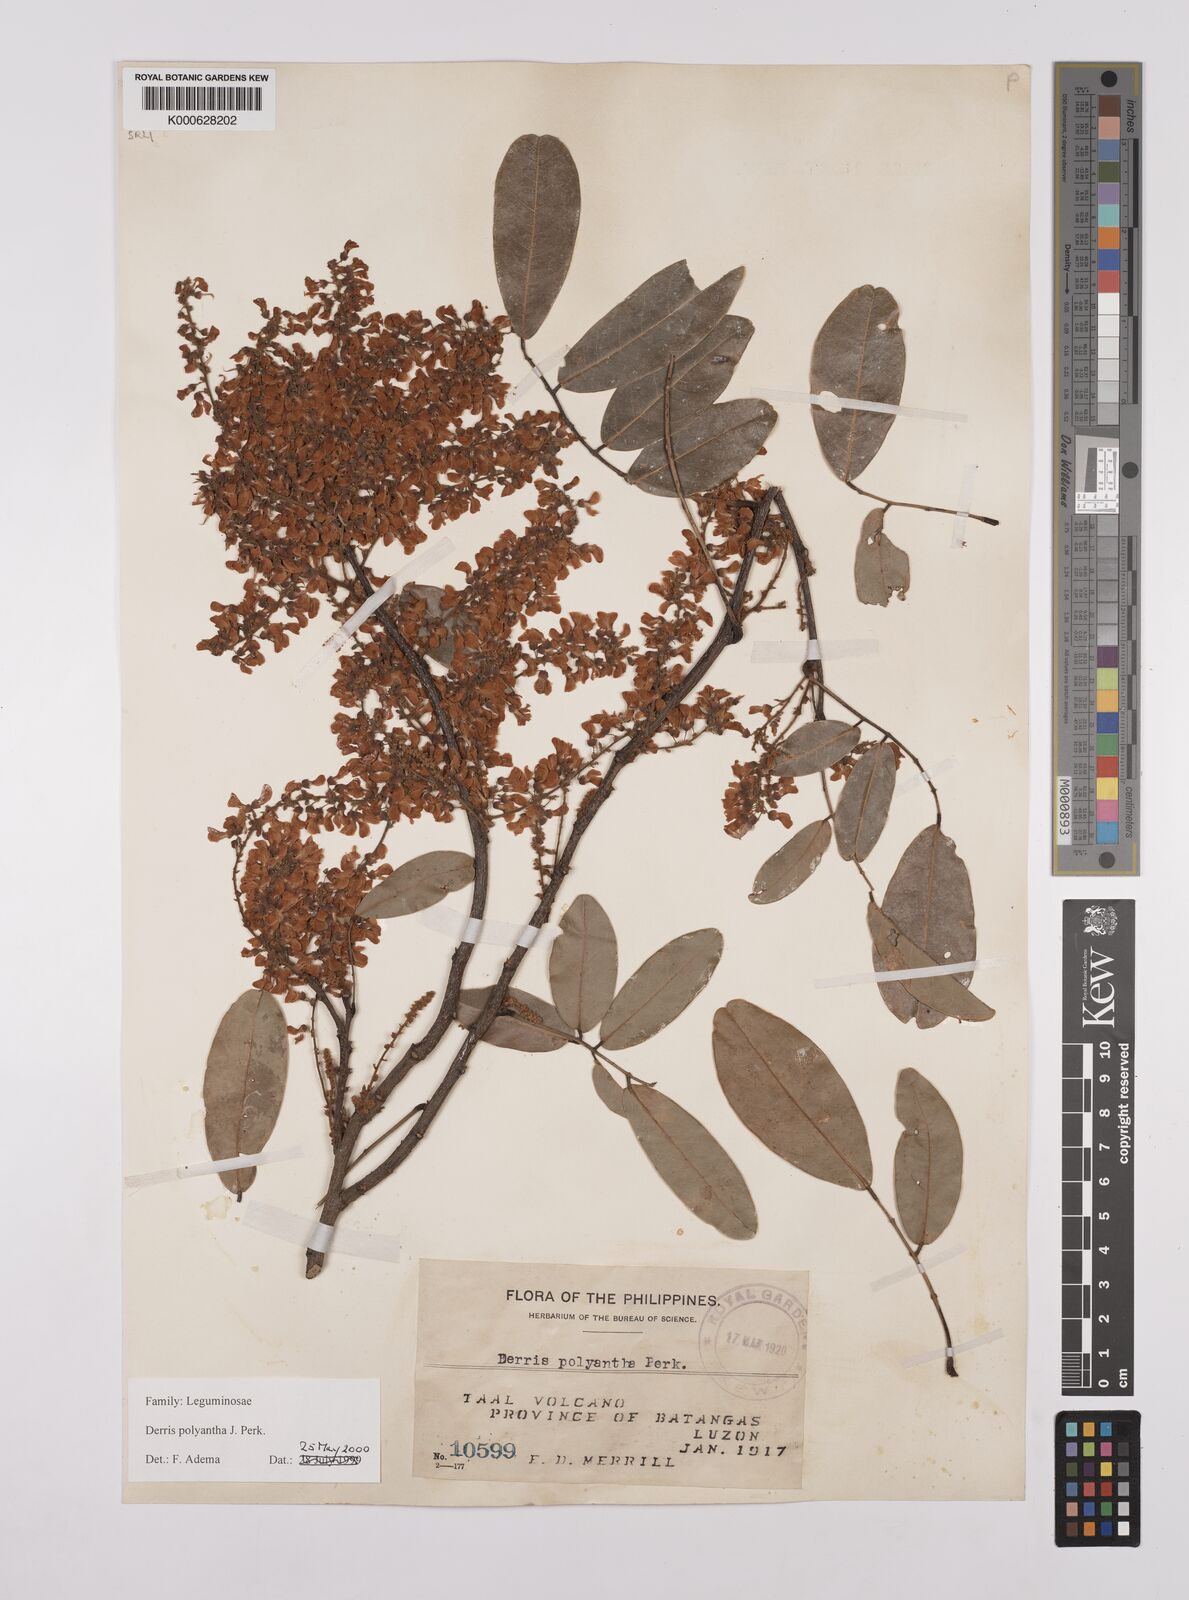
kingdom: Plantae
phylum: Tracheophyta
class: Magnoliopsida
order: Fabales
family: Fabaceae
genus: Derris
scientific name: Derris polyantha
